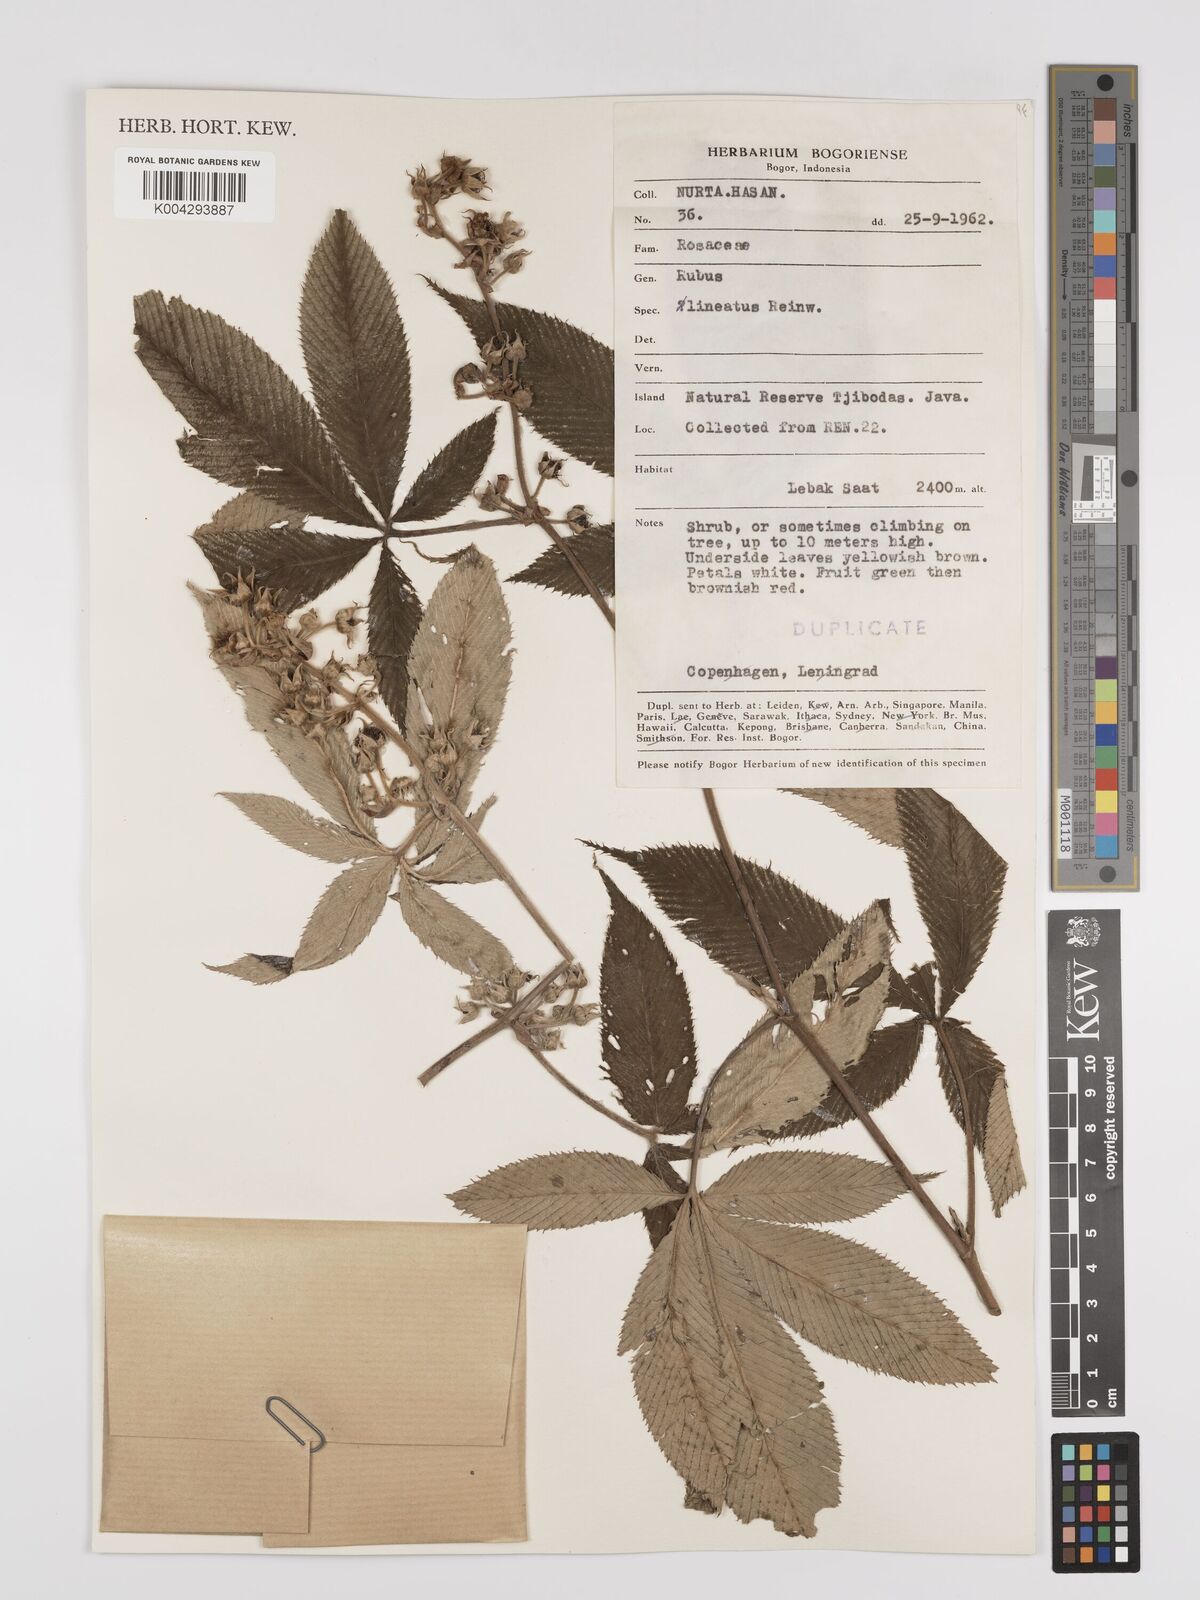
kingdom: Plantae
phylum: Tracheophyta
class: Magnoliopsida
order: Rosales
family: Rosaceae
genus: Rubus
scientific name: Rubus lineatus
